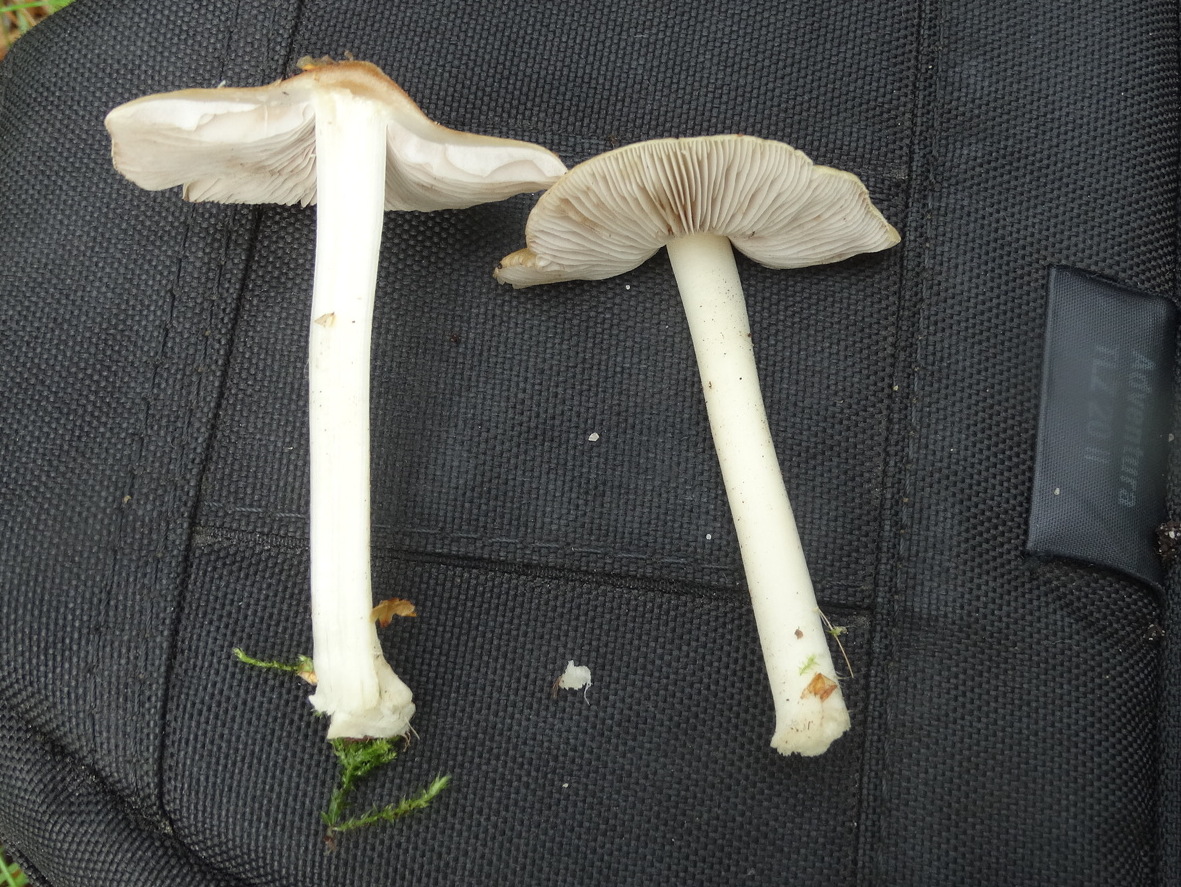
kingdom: Fungi
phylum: Basidiomycota
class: Agaricomycetes
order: Agaricales
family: Inocybaceae
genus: Inocybe
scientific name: Inocybe mixtilis
